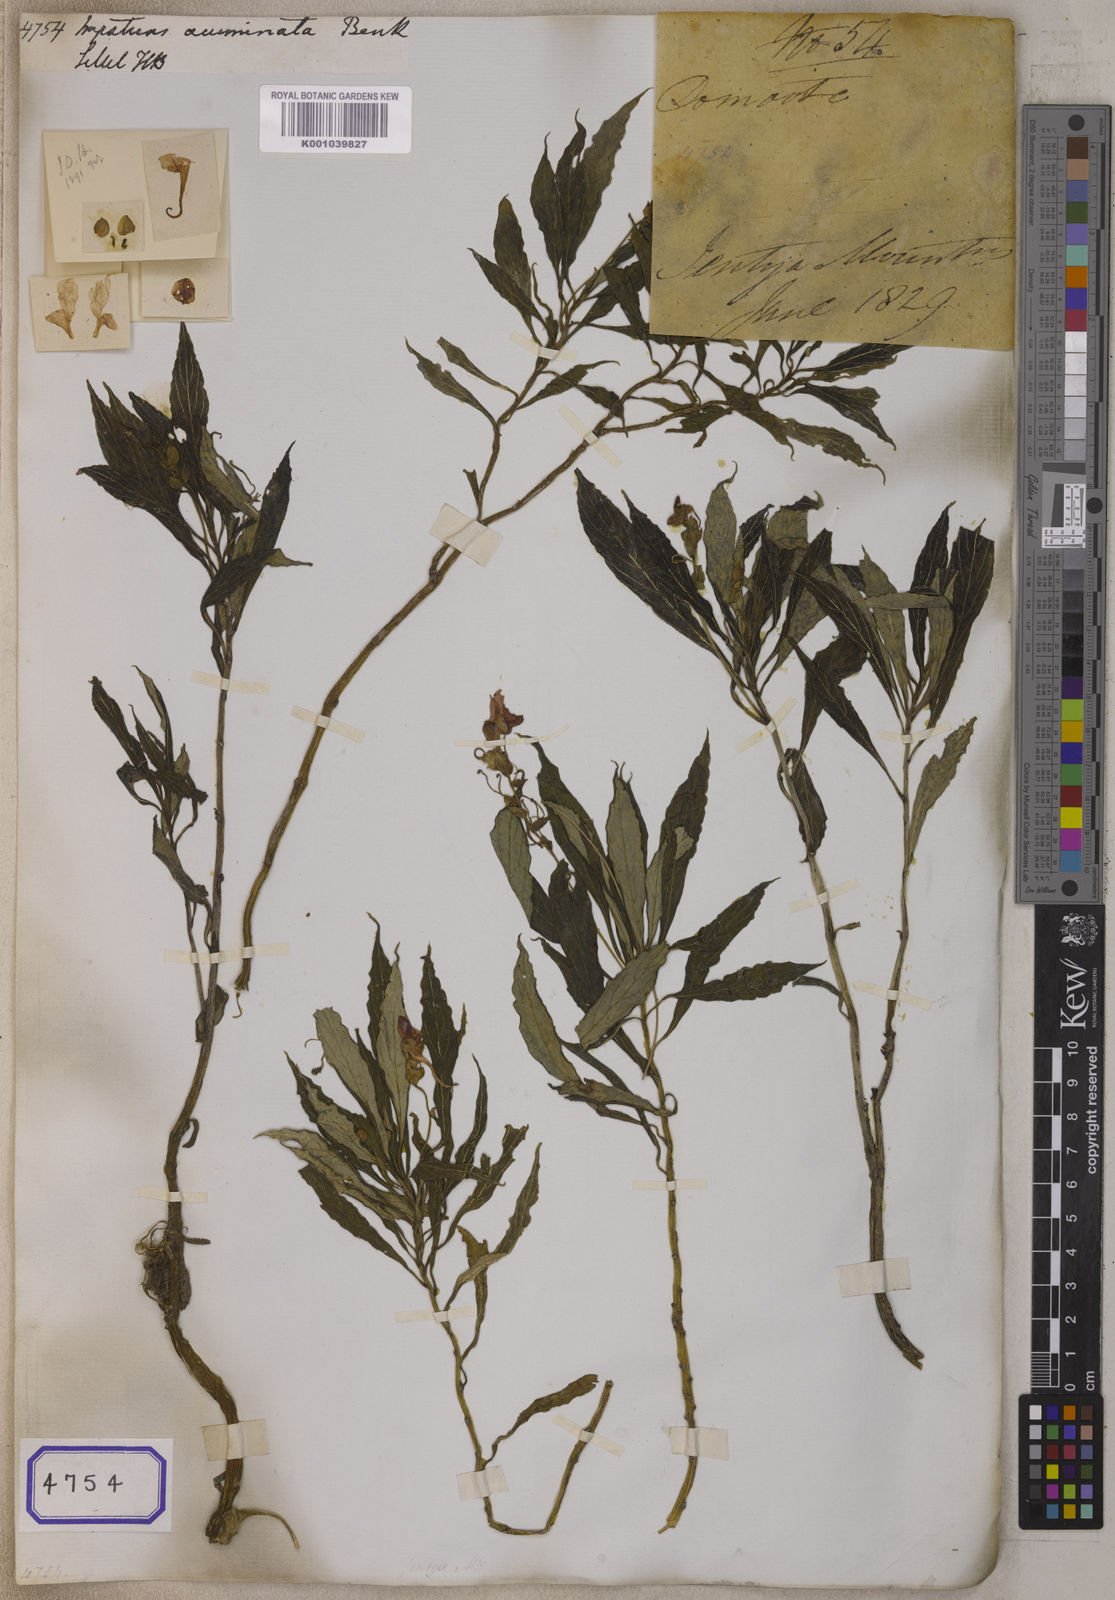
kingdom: Plantae
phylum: Tracheophyta
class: Magnoliopsida
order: Ericales
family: Balsaminaceae
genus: Impatiens
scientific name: Impatiens
